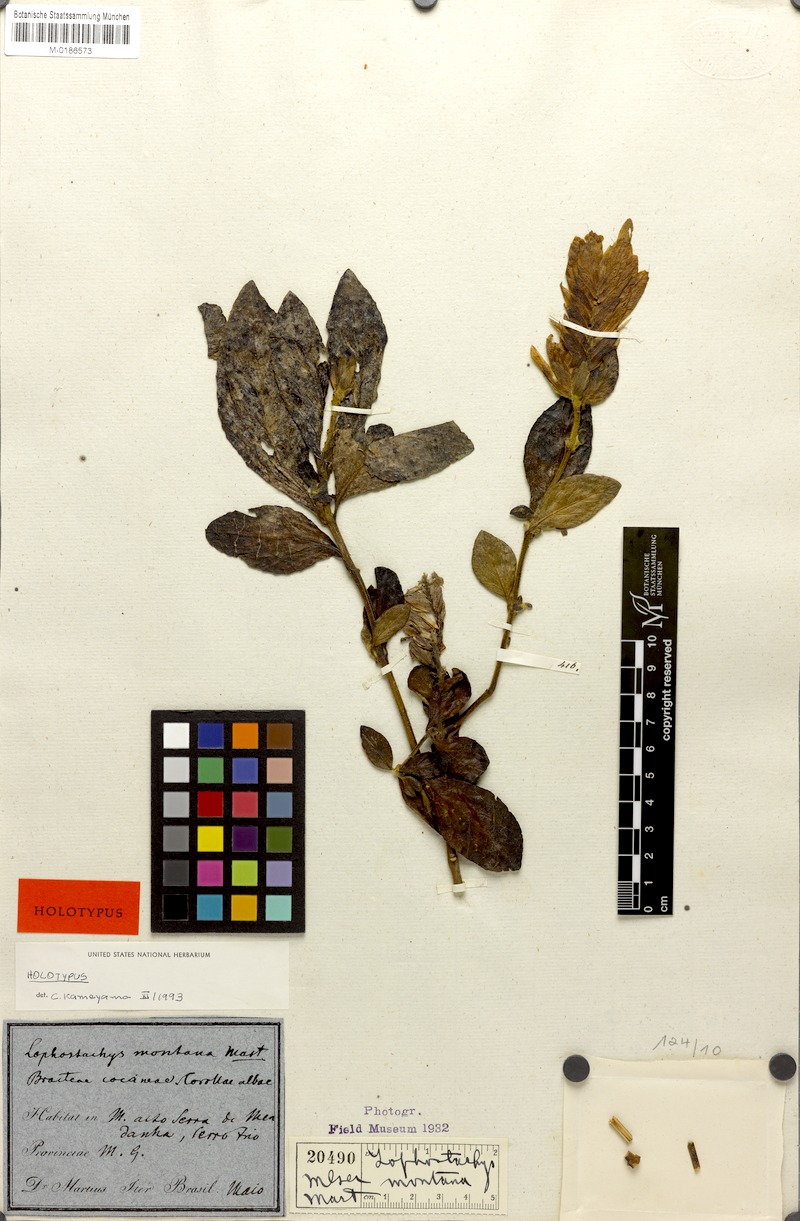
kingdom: Plantae
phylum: Tracheophyta
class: Magnoliopsida
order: Lamiales
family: Acanthaceae
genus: Lepidagathis
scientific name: Lepidagathis montana
